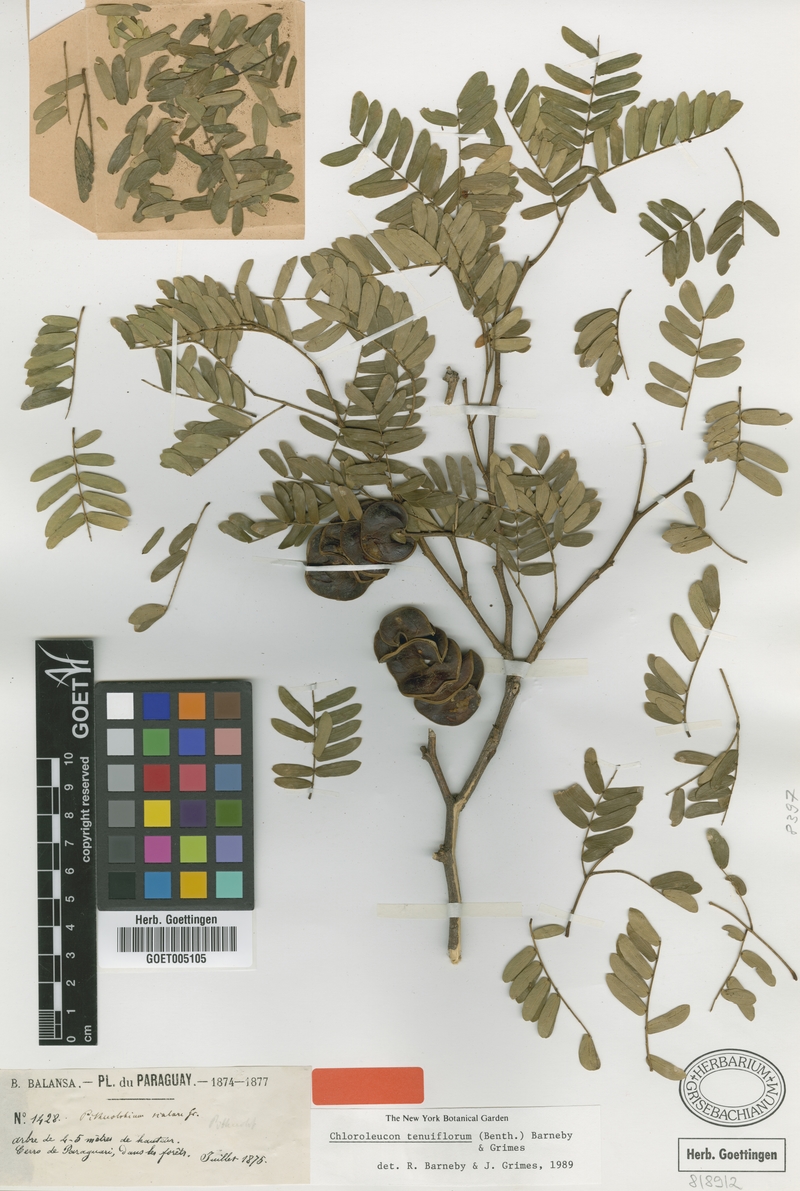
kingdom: Plantae
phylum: Tracheophyta
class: Magnoliopsida
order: Fabales
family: Fabaceae
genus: Chloroleucon
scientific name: Chloroleucon tenuiflorum
